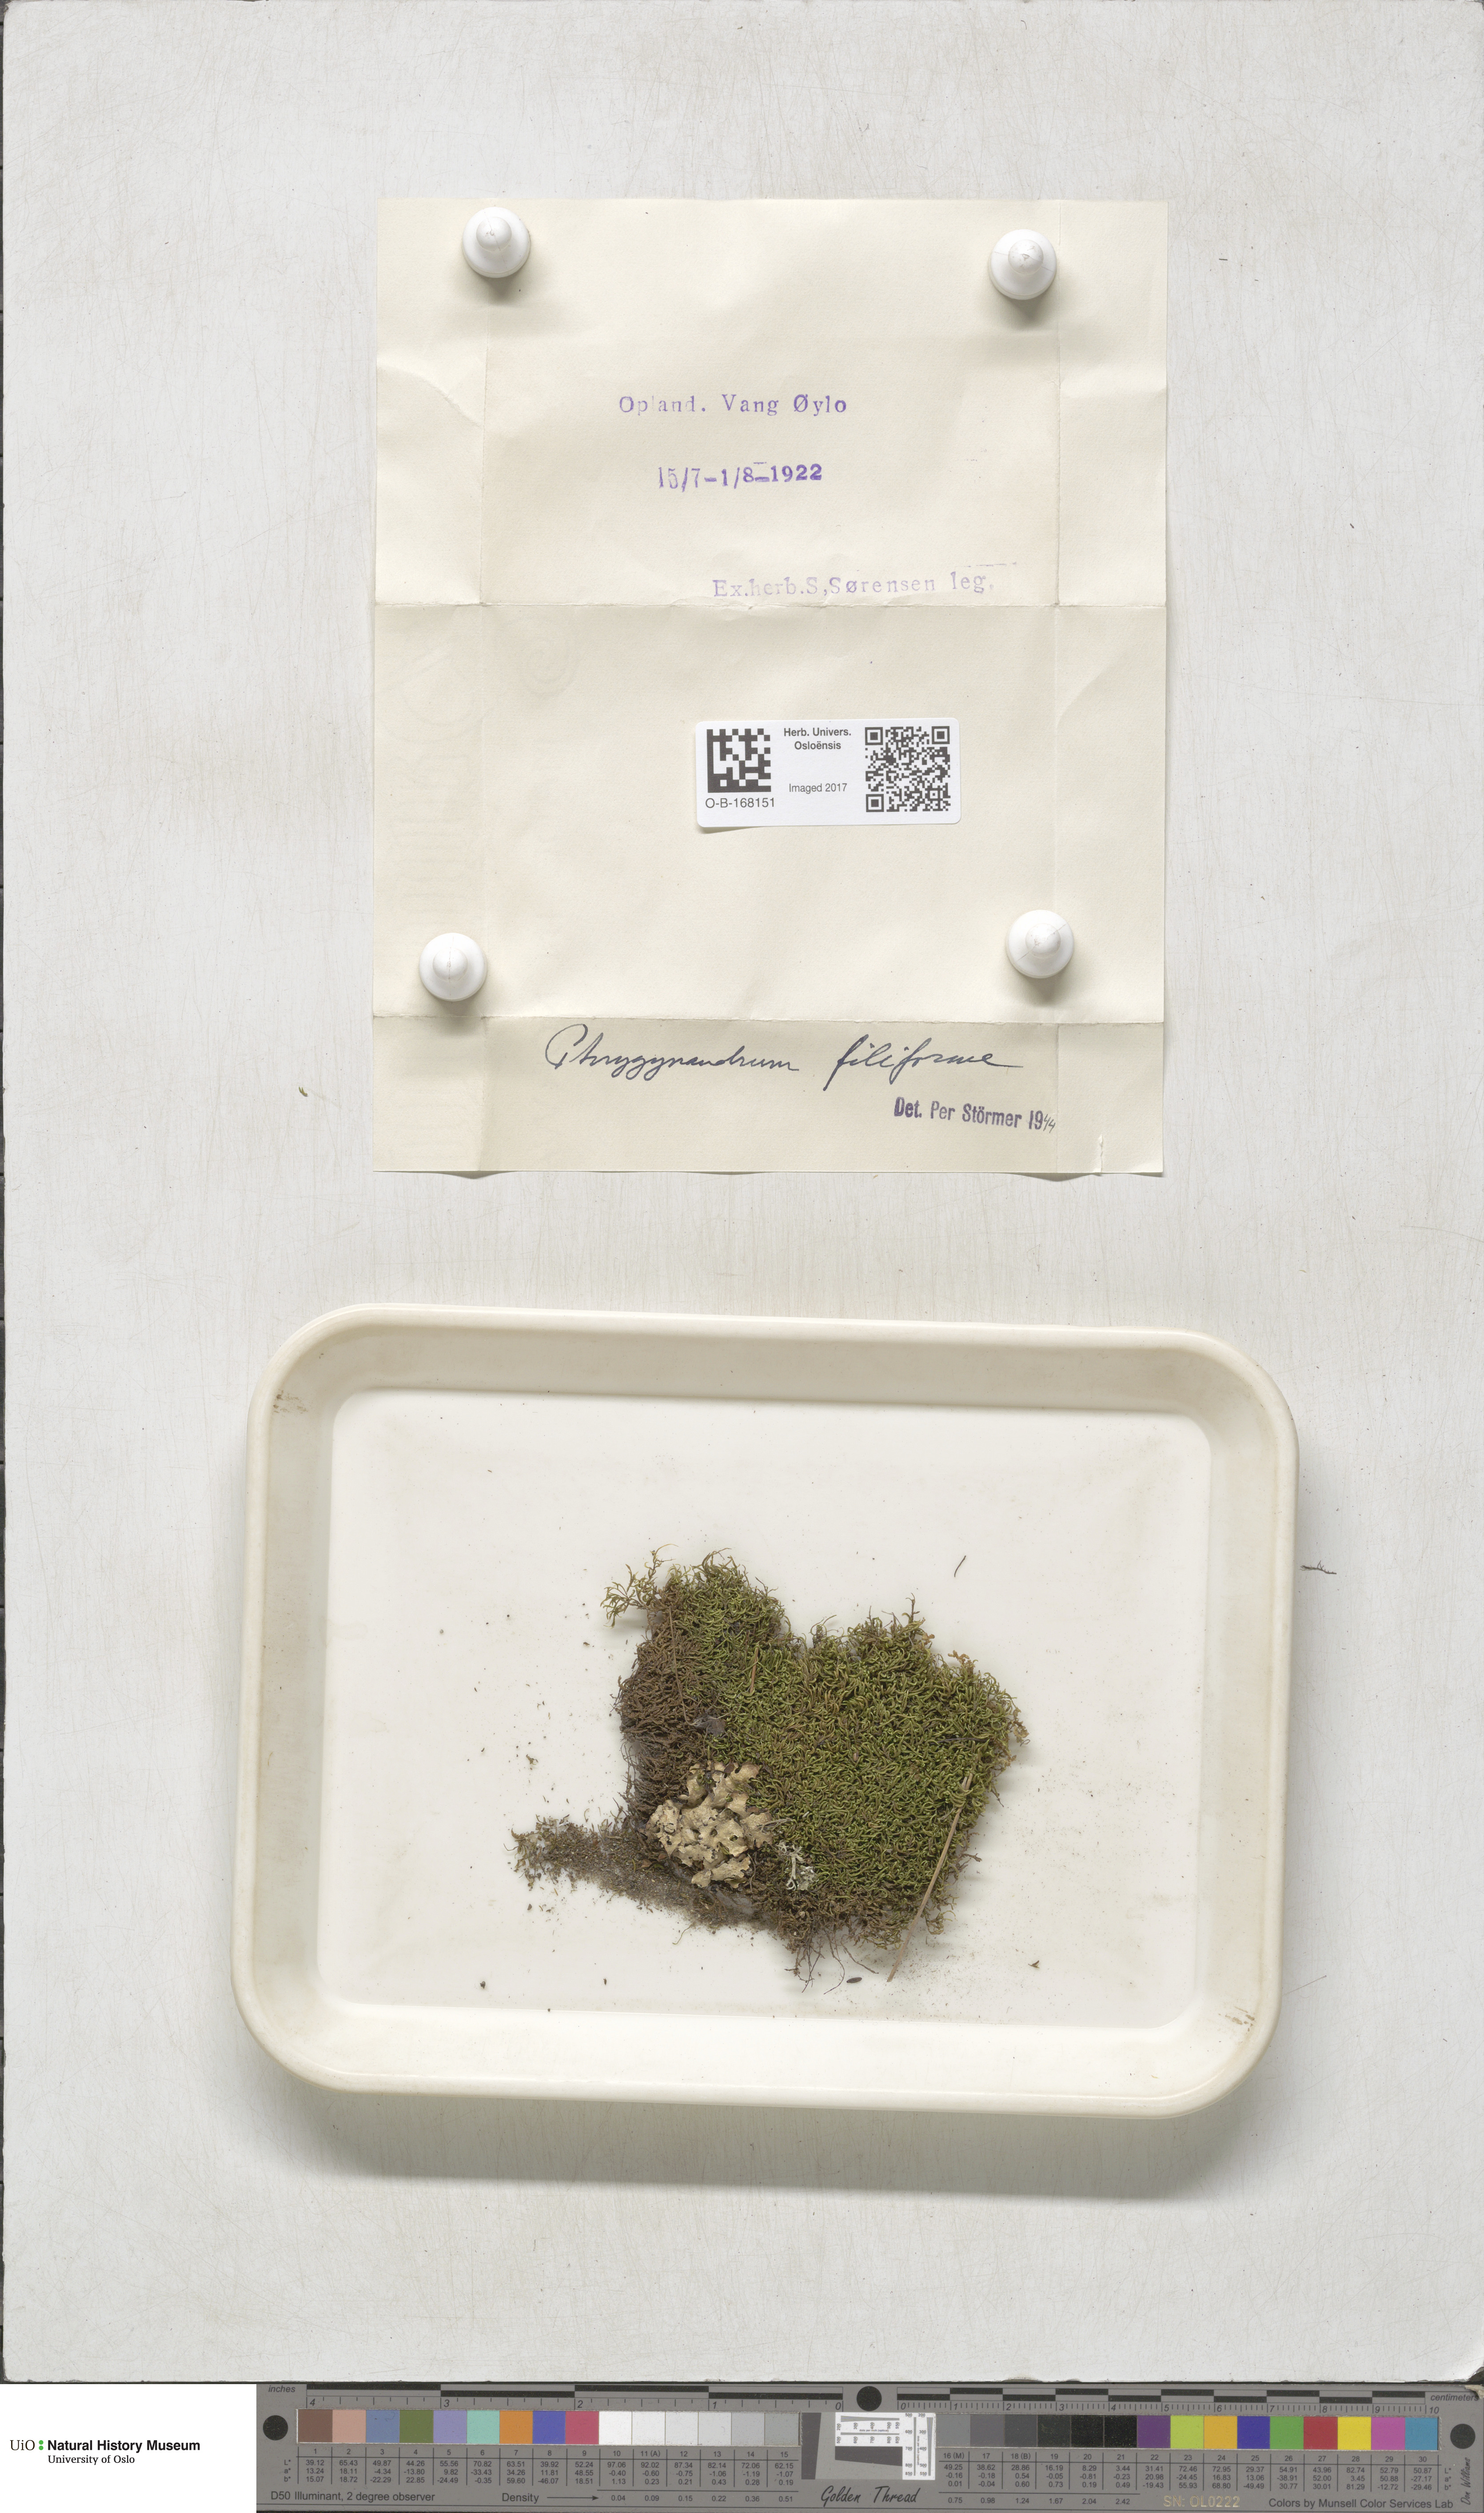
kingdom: Plantae
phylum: Bryophyta
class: Bryopsida
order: Hypnales
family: Pterigynandraceae
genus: Pterigynandrum
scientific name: Pterigynandrum filiforme
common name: Capillary wing moss
